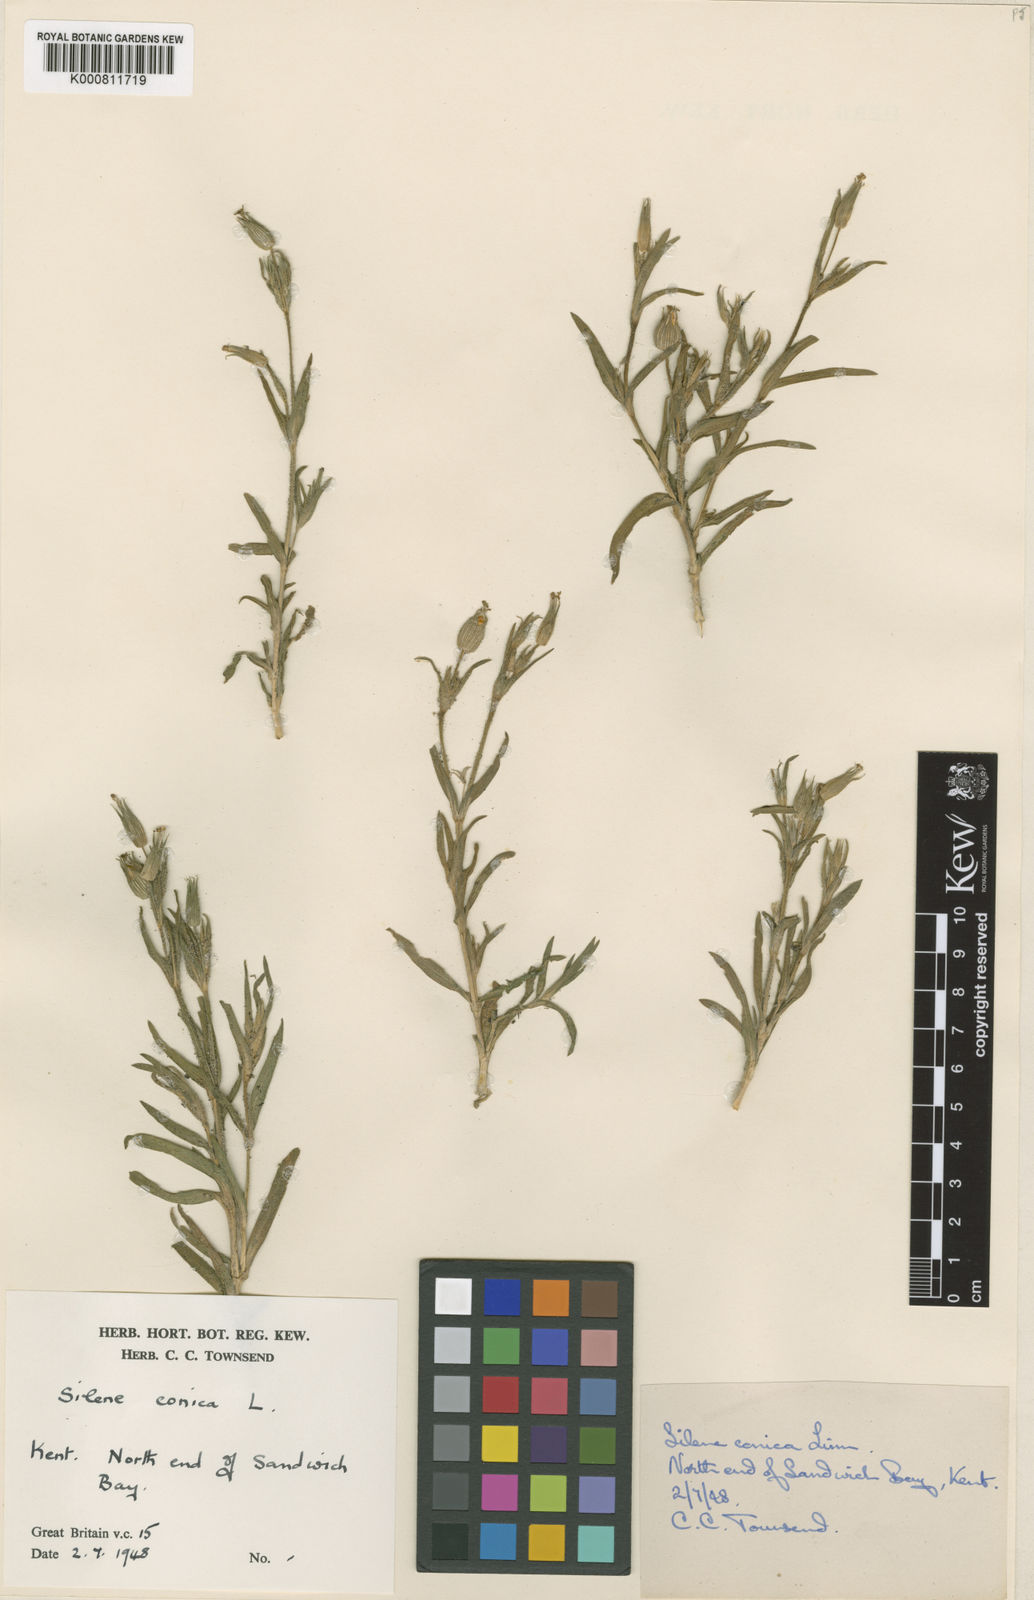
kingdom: Plantae
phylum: Tracheophyta
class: Magnoliopsida
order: Caryophyllales
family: Caryophyllaceae
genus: Silene
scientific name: Silene conica
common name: Sand catchfly
